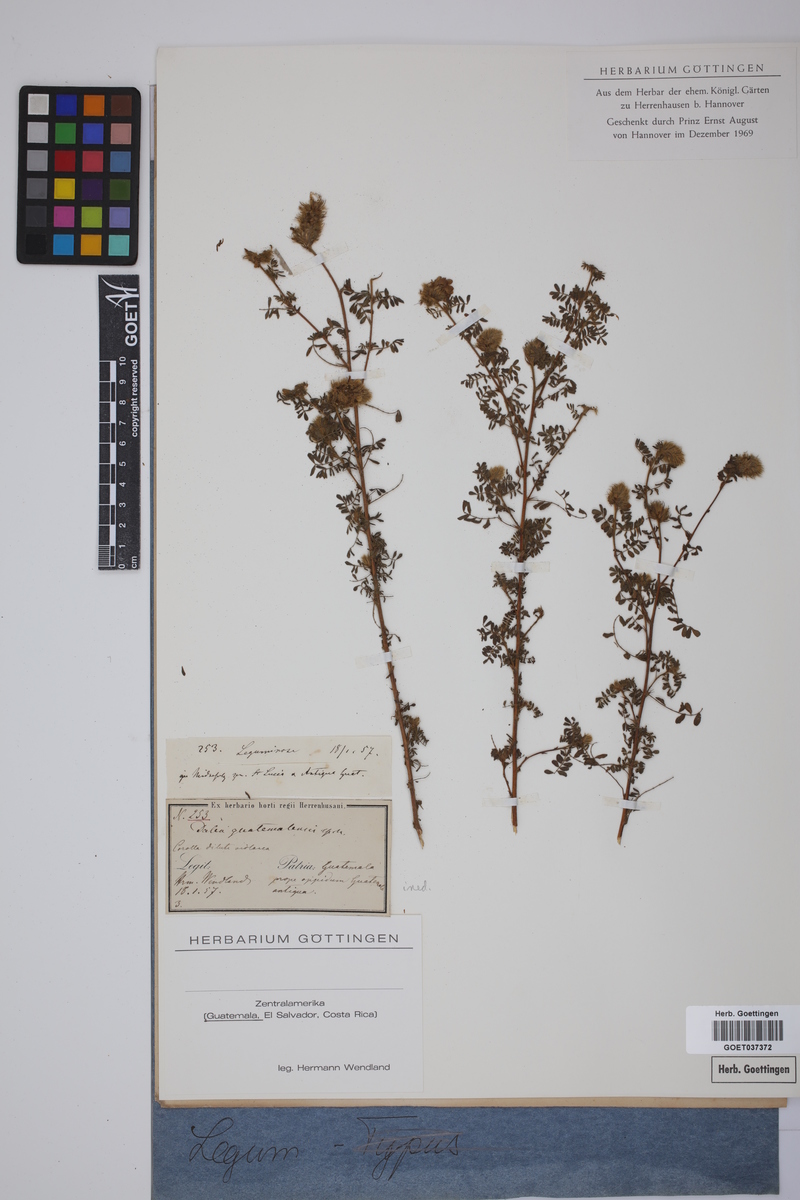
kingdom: Plantae
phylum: Tracheophyta
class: Magnoliopsida
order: Fabales
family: Fabaceae
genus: Dalea
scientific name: Dalea guatemalensis
